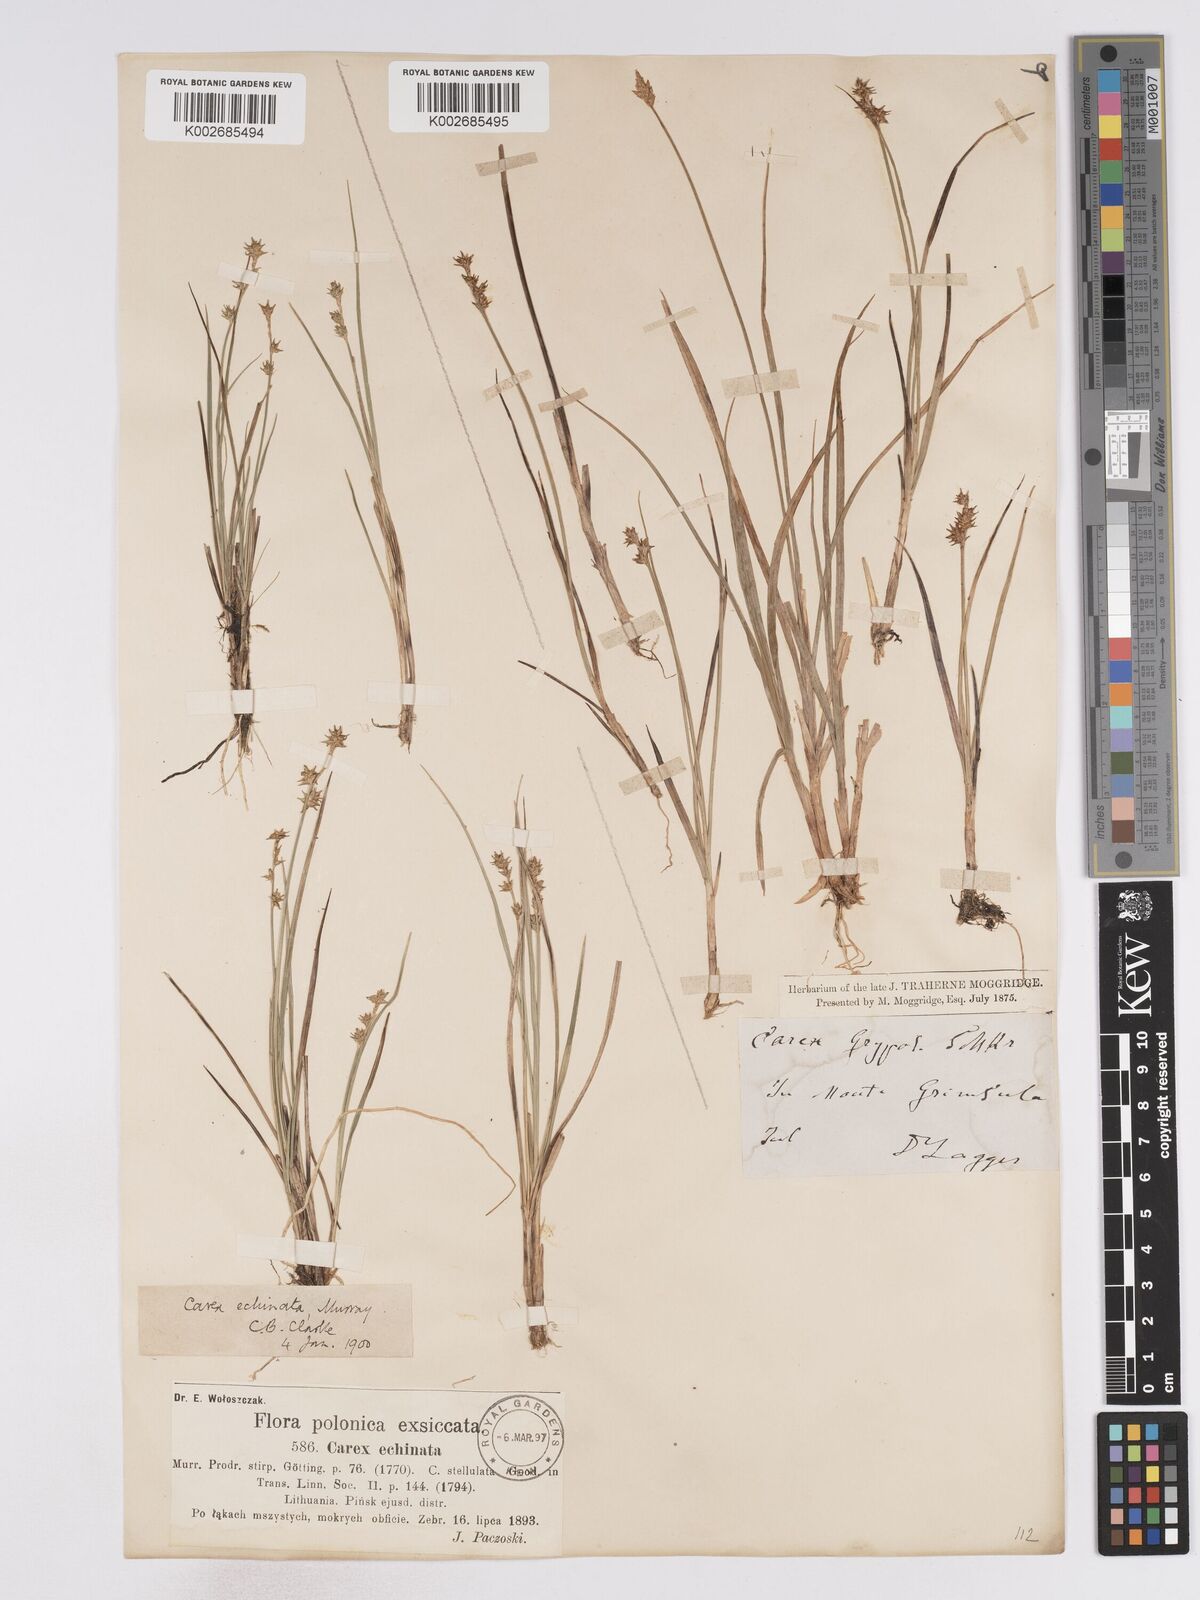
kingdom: Plantae
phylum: Tracheophyta
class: Liliopsida
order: Poales
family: Cyperaceae
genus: Carex
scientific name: Carex echinata
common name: Star sedge
